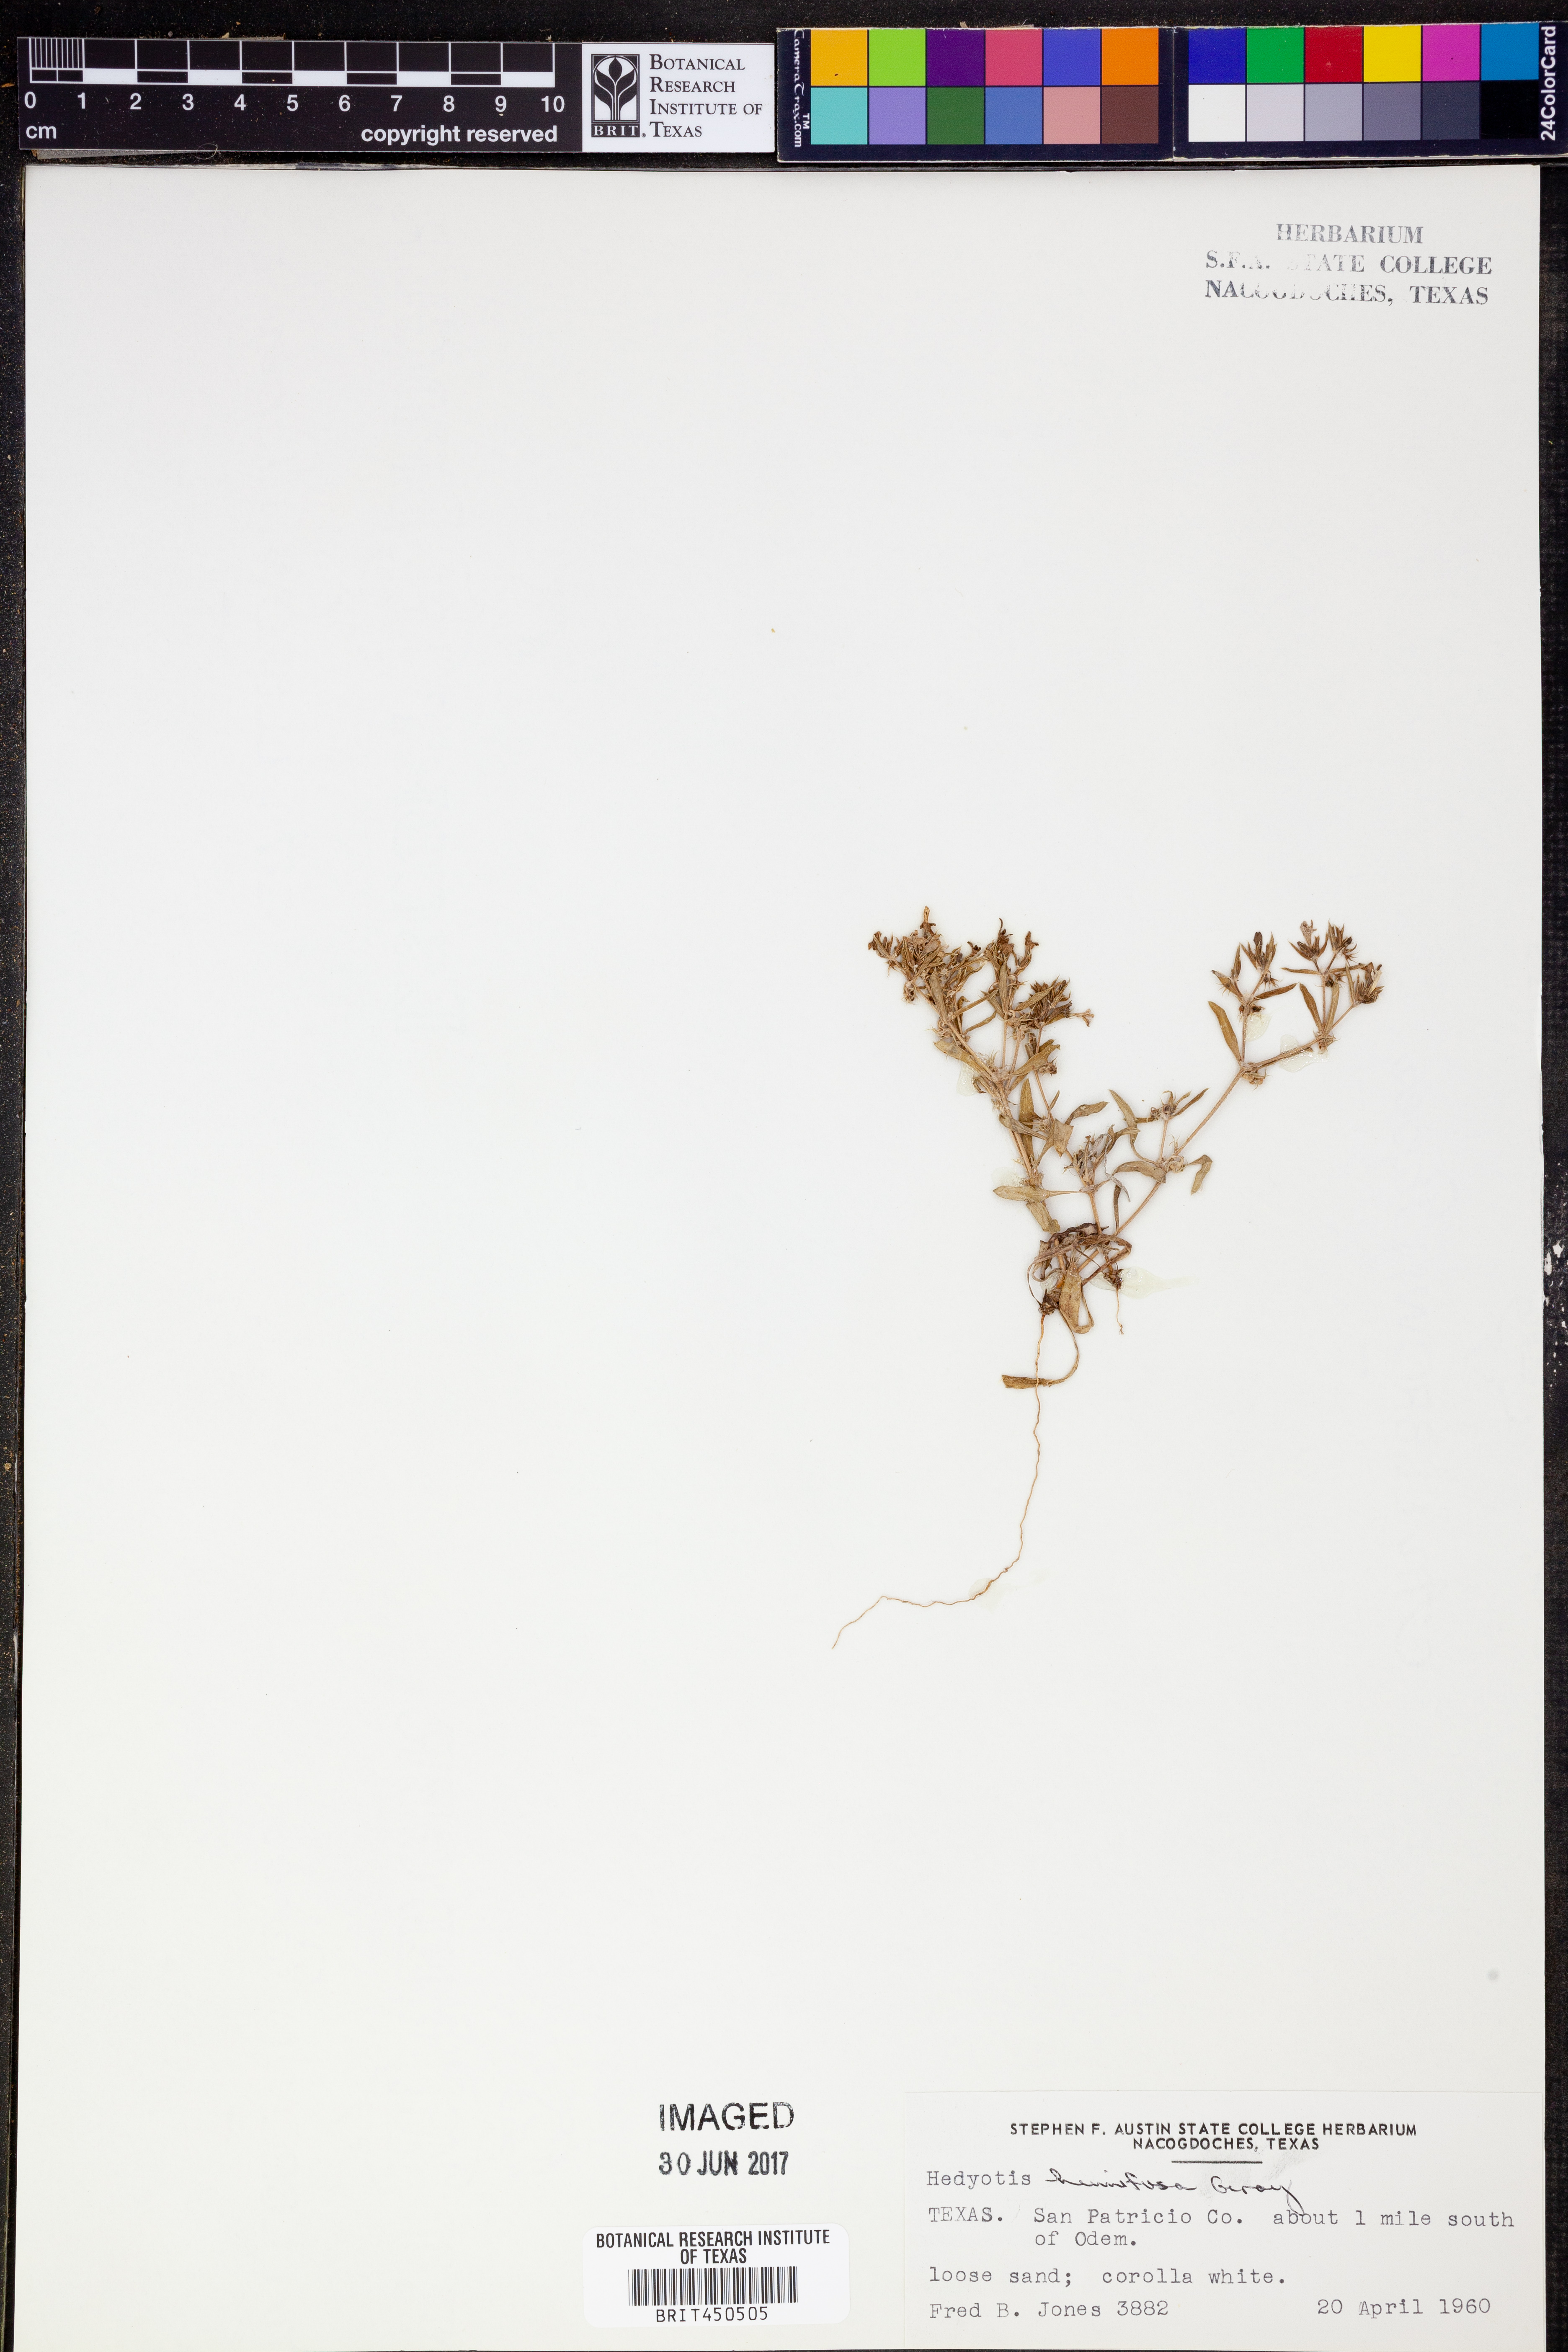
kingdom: Plantae
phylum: Tracheophyta
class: Magnoliopsida
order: Gentianales
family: Rubiaceae
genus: Houstonia
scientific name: Houstonia humifusa
